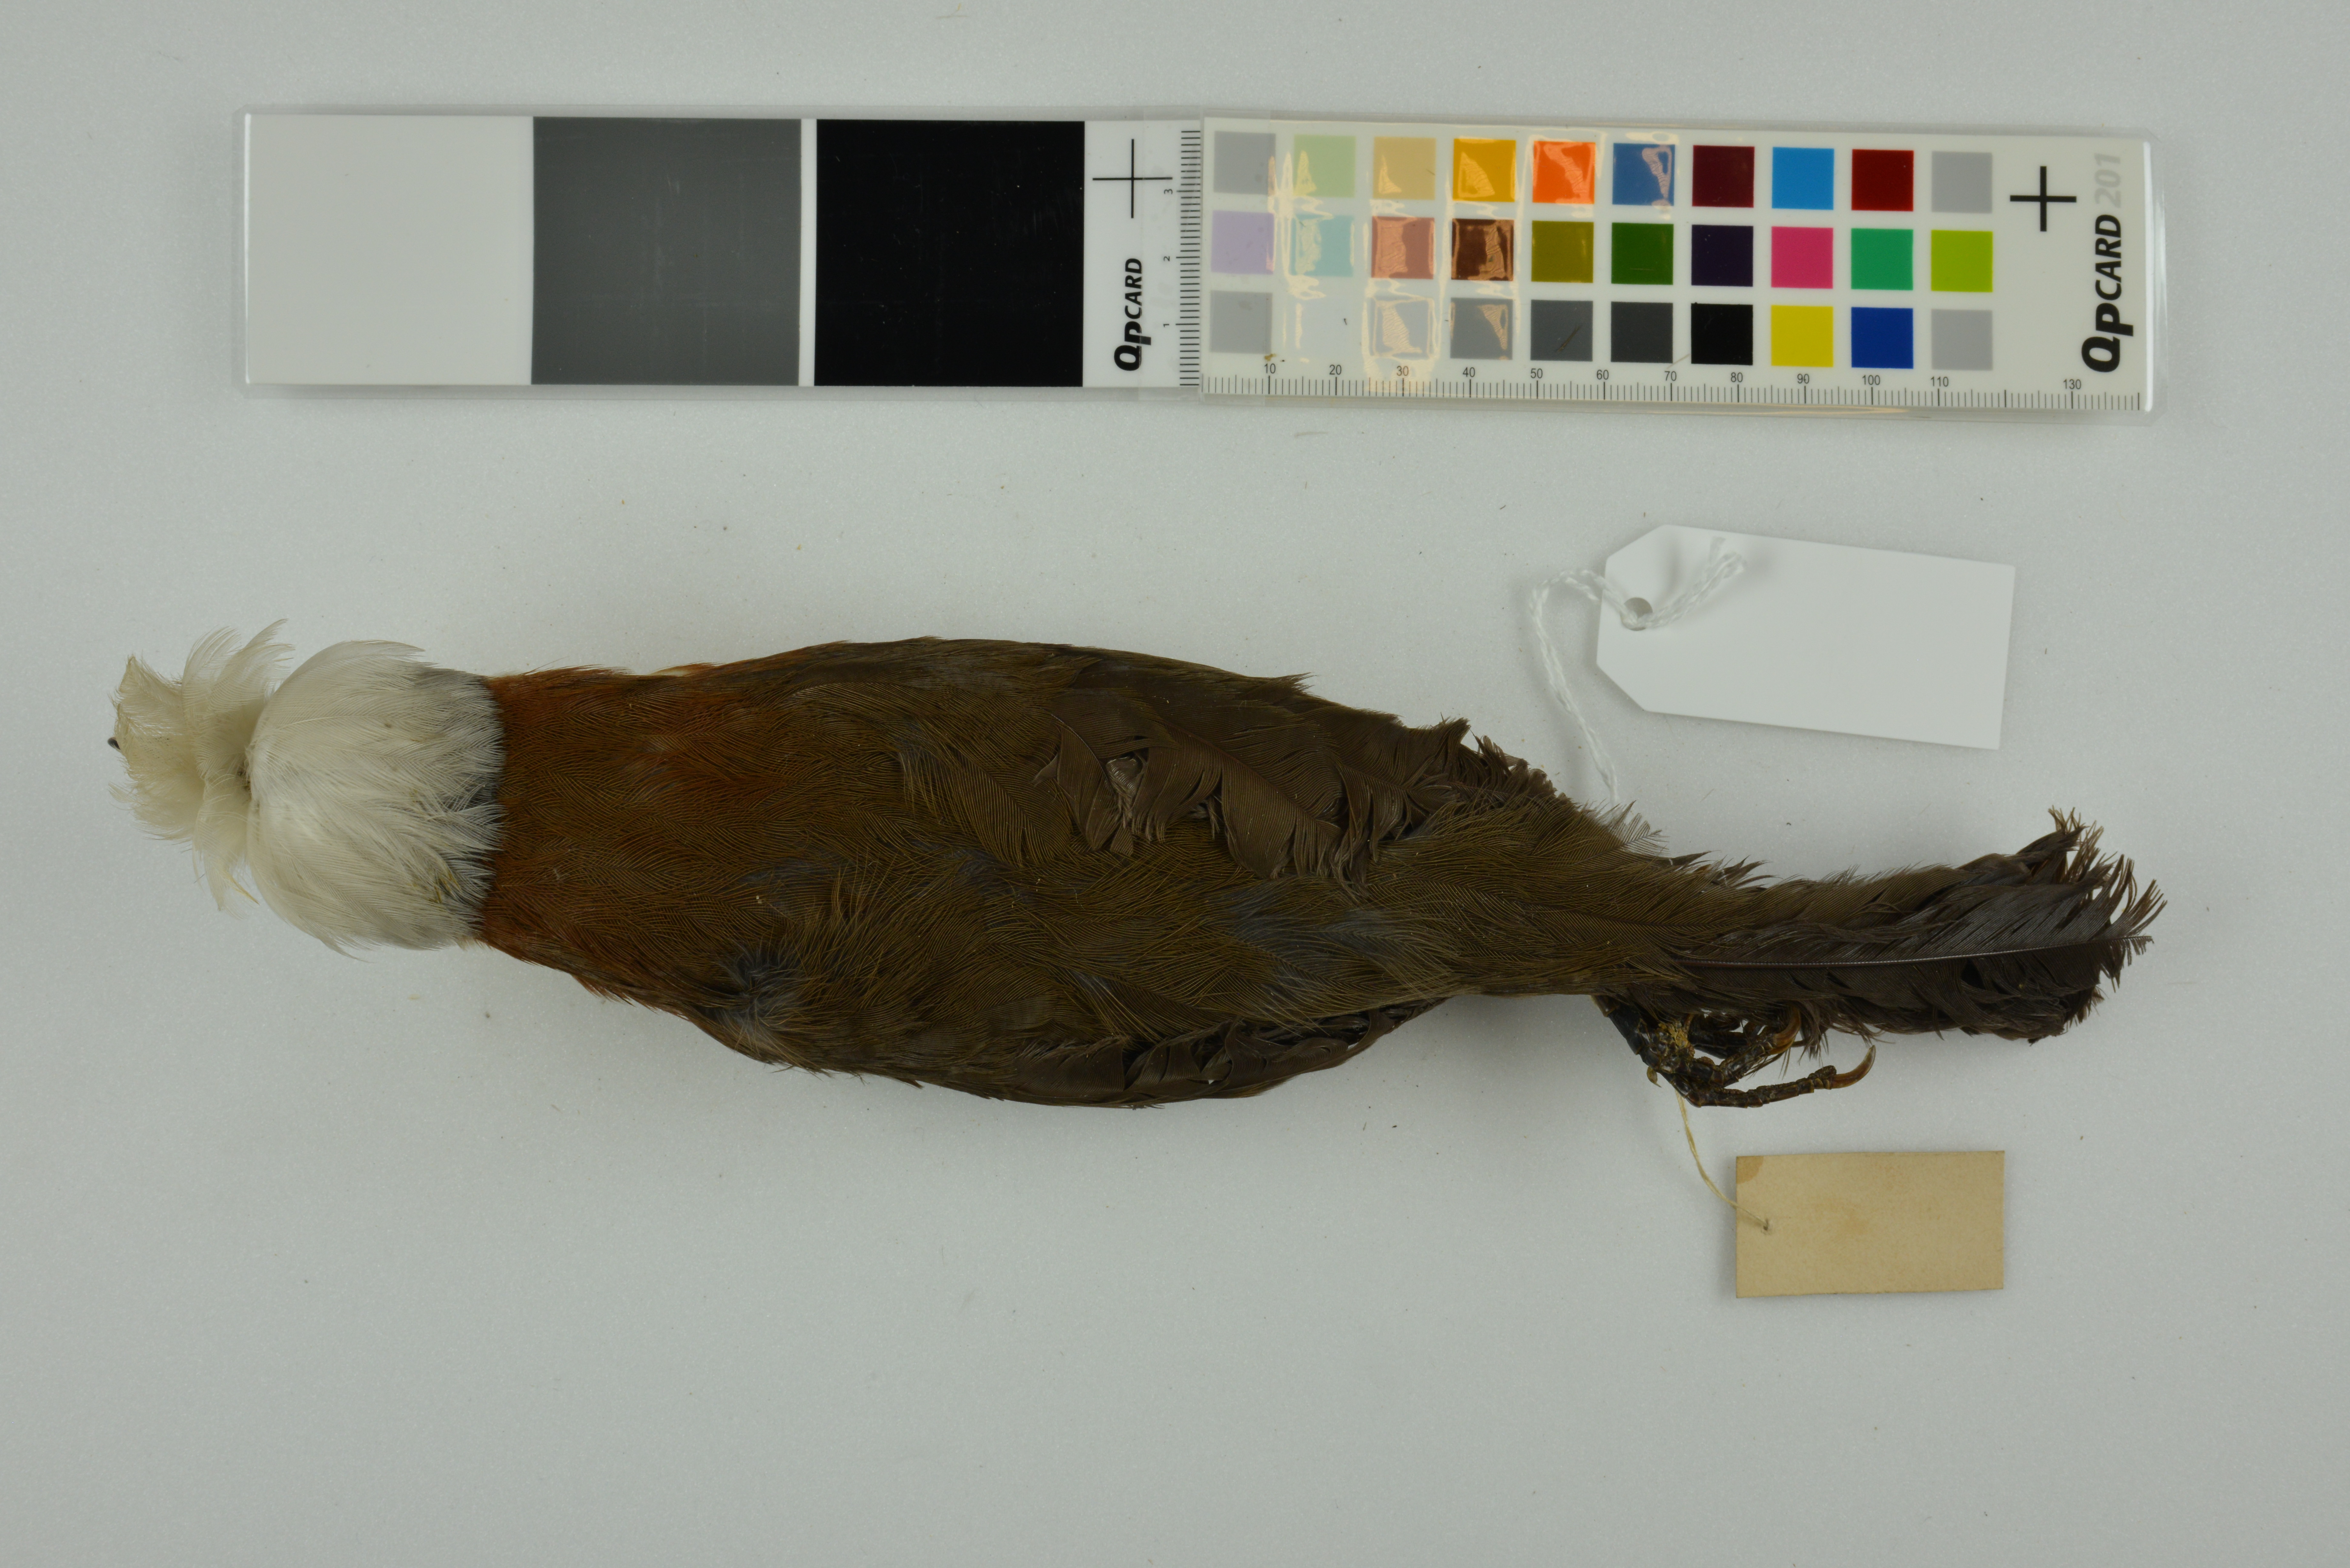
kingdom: Animalia
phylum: Chordata
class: Aves
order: Passeriformes
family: Leiothrichidae
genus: Garrulax
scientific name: Garrulax leucolophus
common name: White-crested laughingthrush
